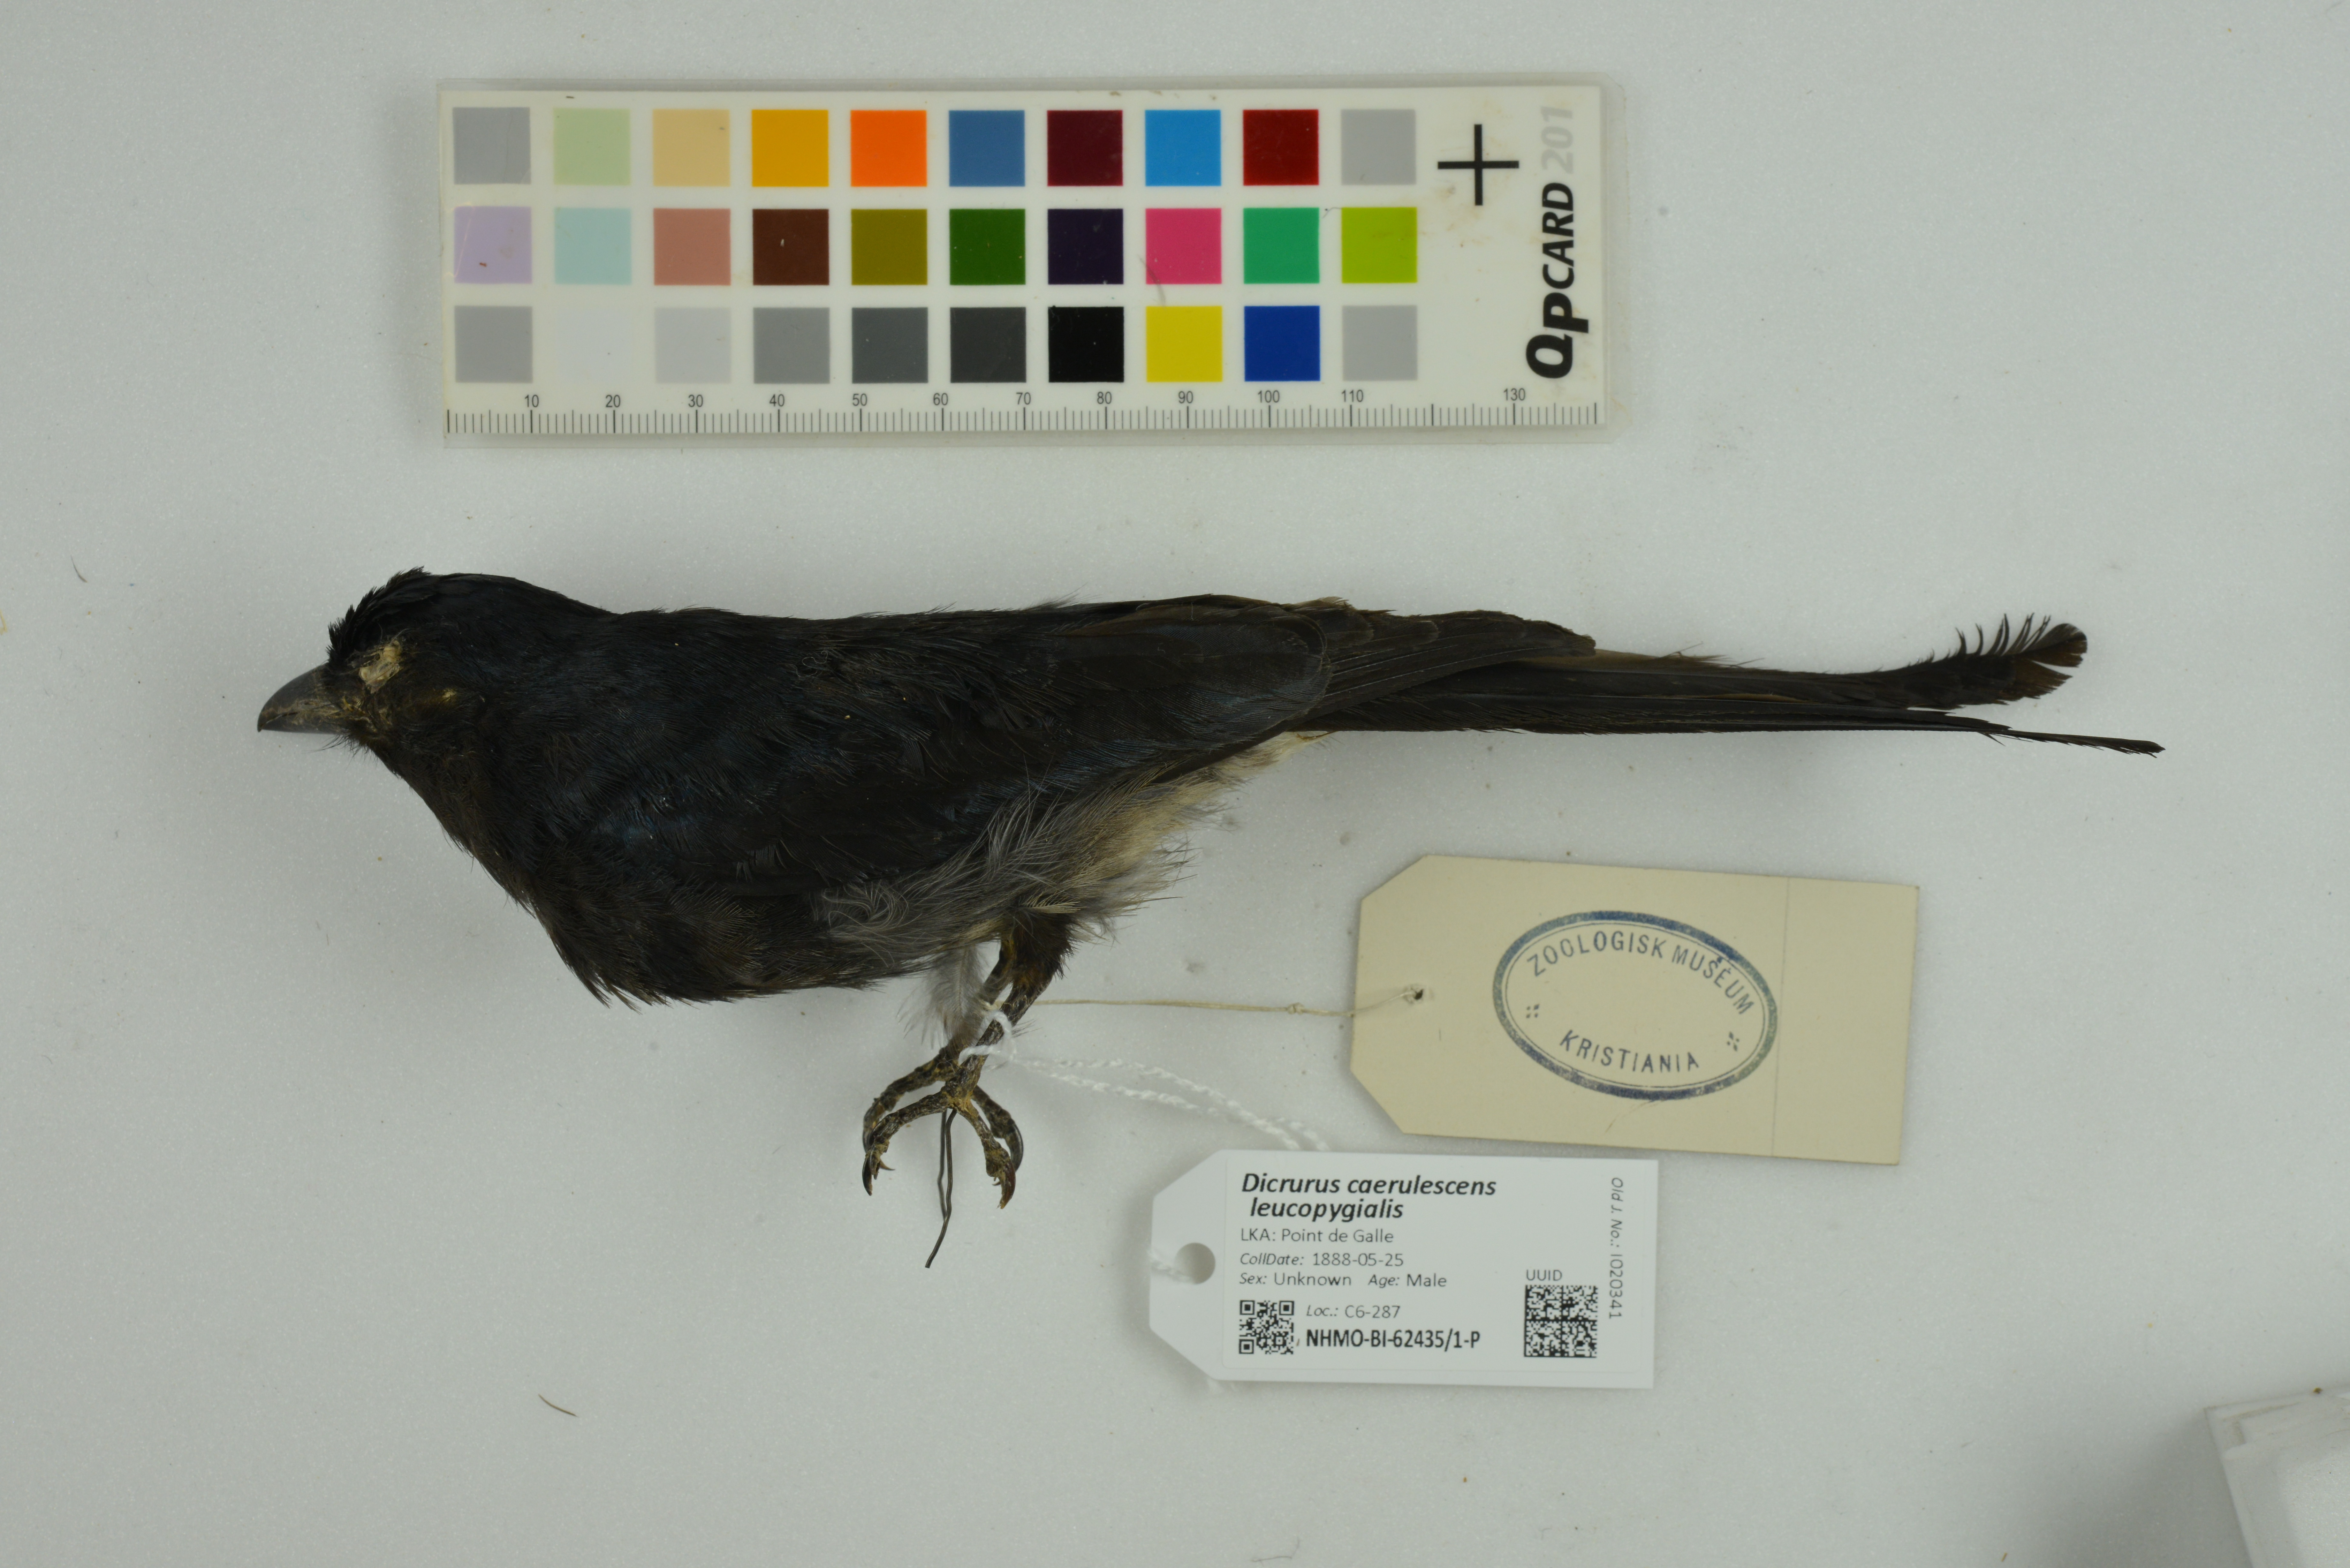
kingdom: Animalia
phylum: Chordata
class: Aves
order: Passeriformes
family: Dicruridae
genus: Dicrurus
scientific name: Dicrurus caerulescens
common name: White-bellied drongo
